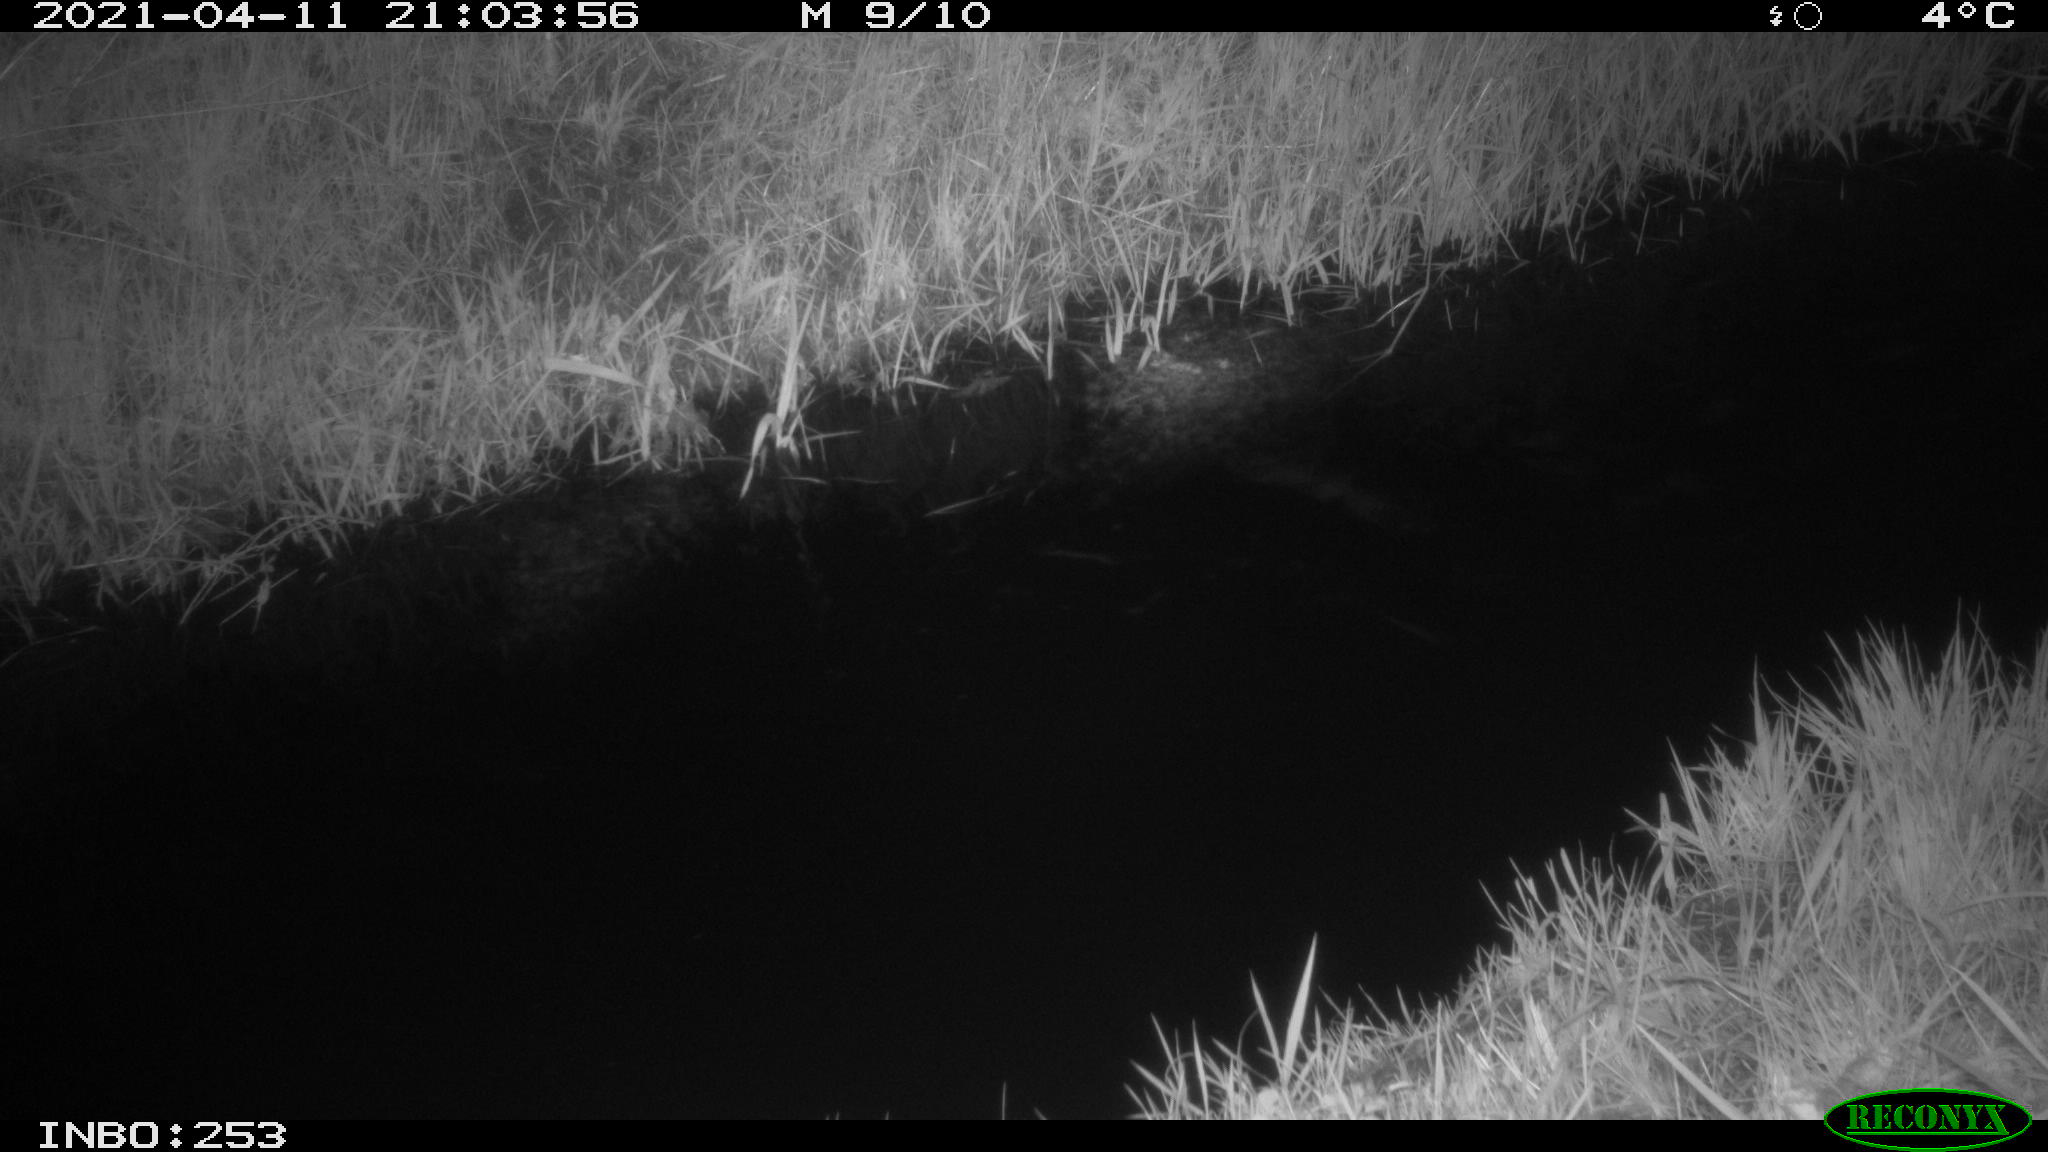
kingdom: Animalia
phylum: Chordata
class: Aves
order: Anseriformes
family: Anatidae
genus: Anas
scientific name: Anas platyrhynchos
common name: Mallard
